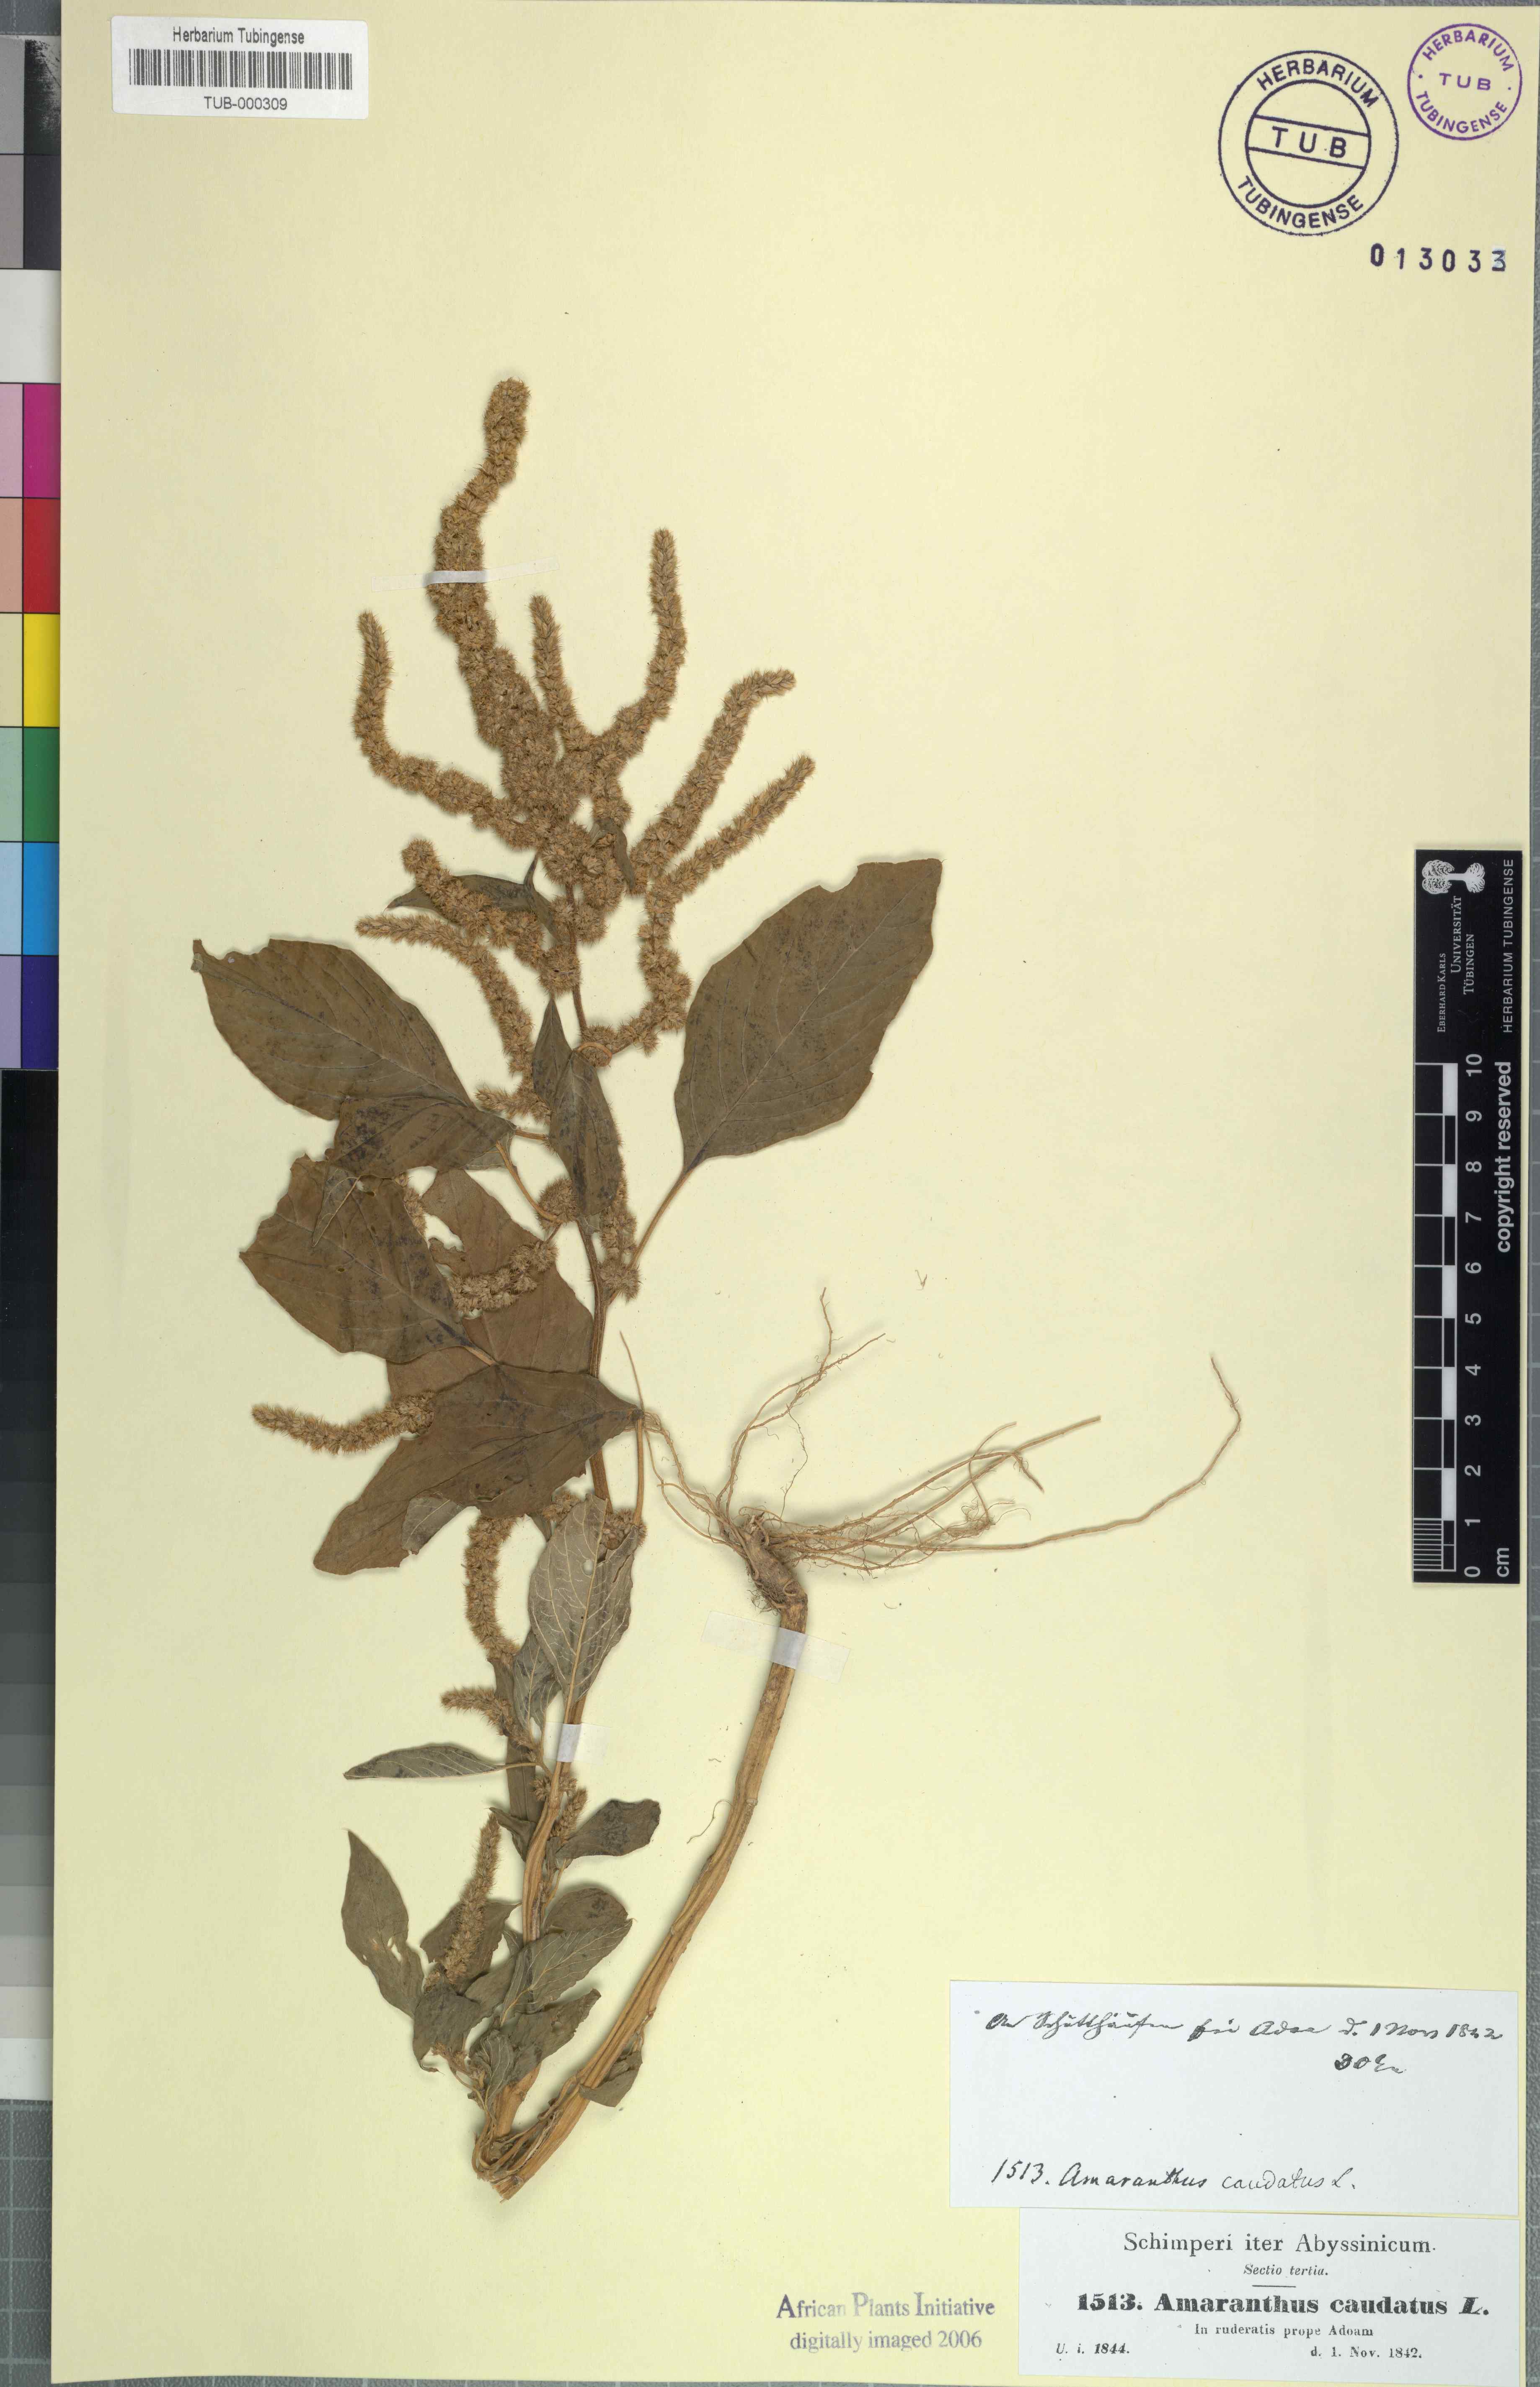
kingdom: Plantae
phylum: Tracheophyta
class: Magnoliopsida
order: Caryophyllales
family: Amaranthaceae
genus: Amaranthus
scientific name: Amaranthus caudatus
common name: Love-lies-bleeding
